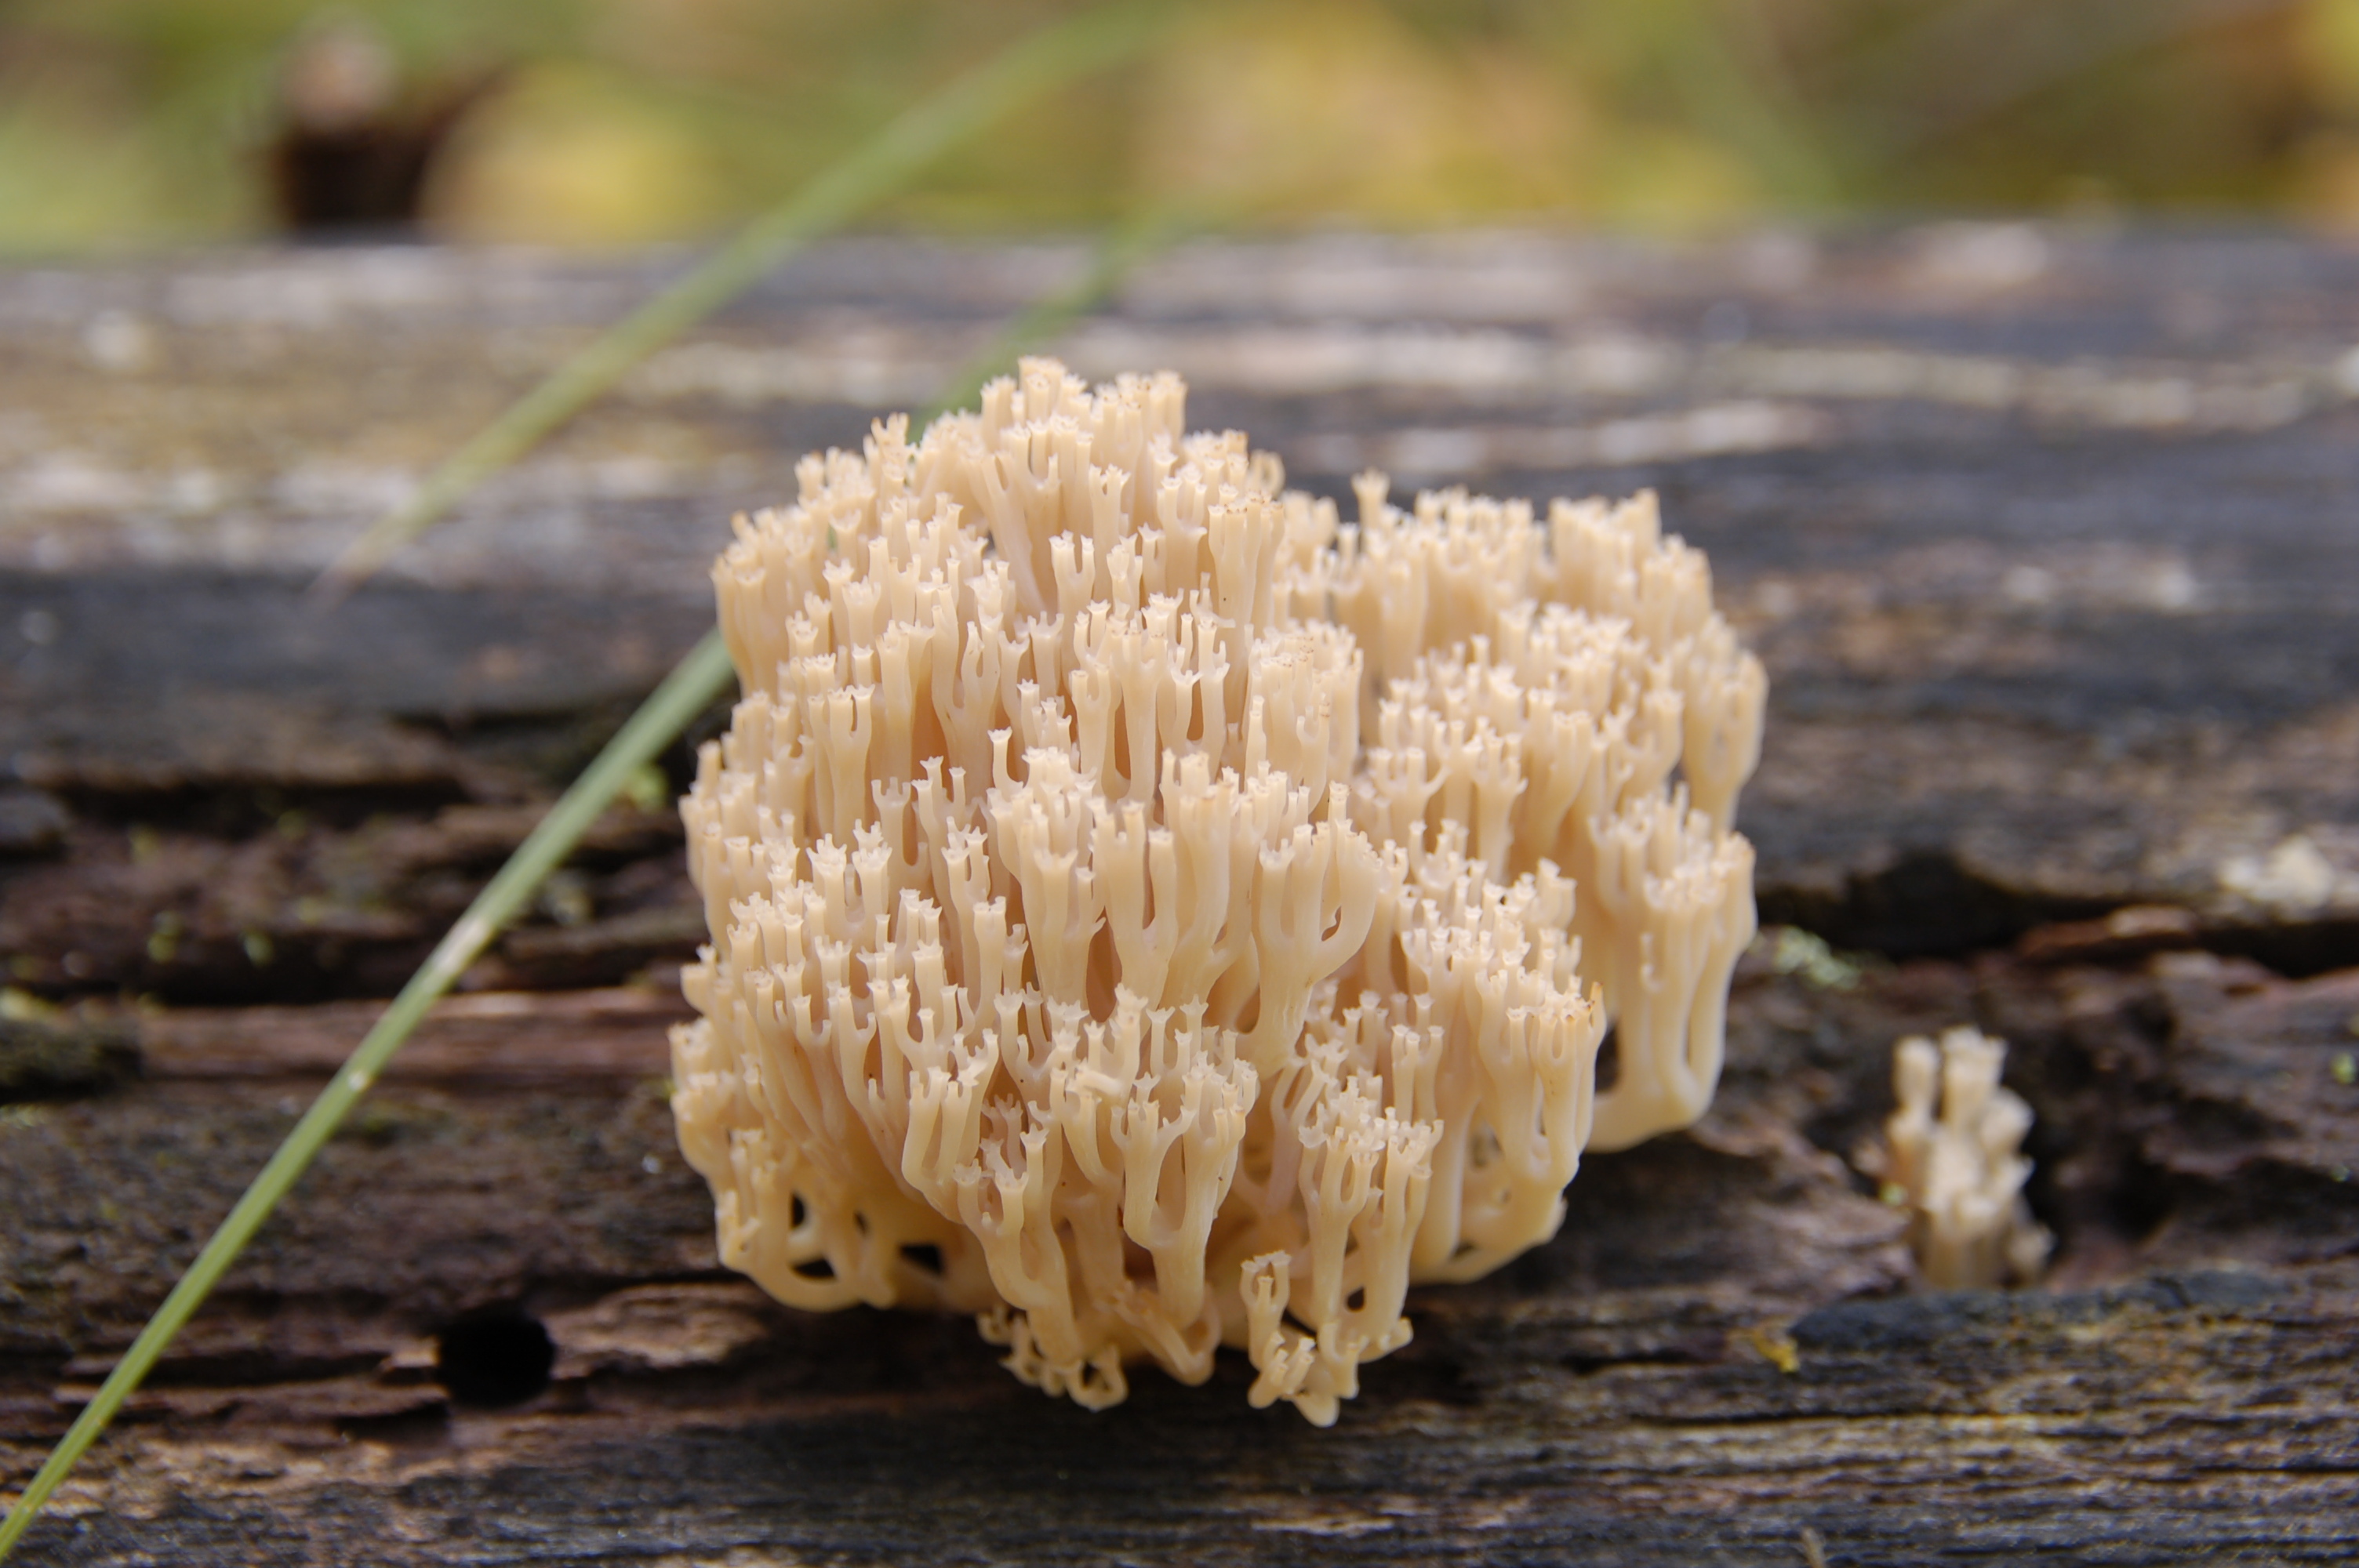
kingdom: Fungi
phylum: Basidiomycota
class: Agaricomycetes
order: Russulales
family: Auriscalpiaceae
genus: Artomyces
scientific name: Artomyces pyxidatus
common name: Crown-tipped coral fungus
